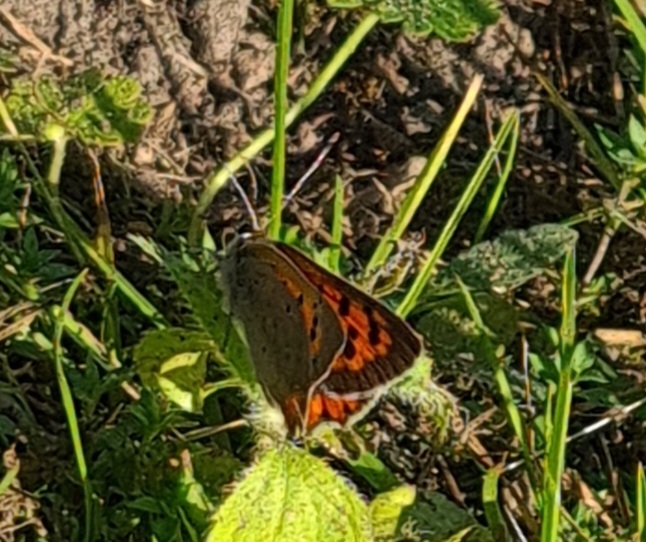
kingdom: Animalia
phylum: Arthropoda
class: Insecta
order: Lepidoptera
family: Lycaenidae
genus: Lycaena
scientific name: Lycaena phlaeas
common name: Lille ildfugl
